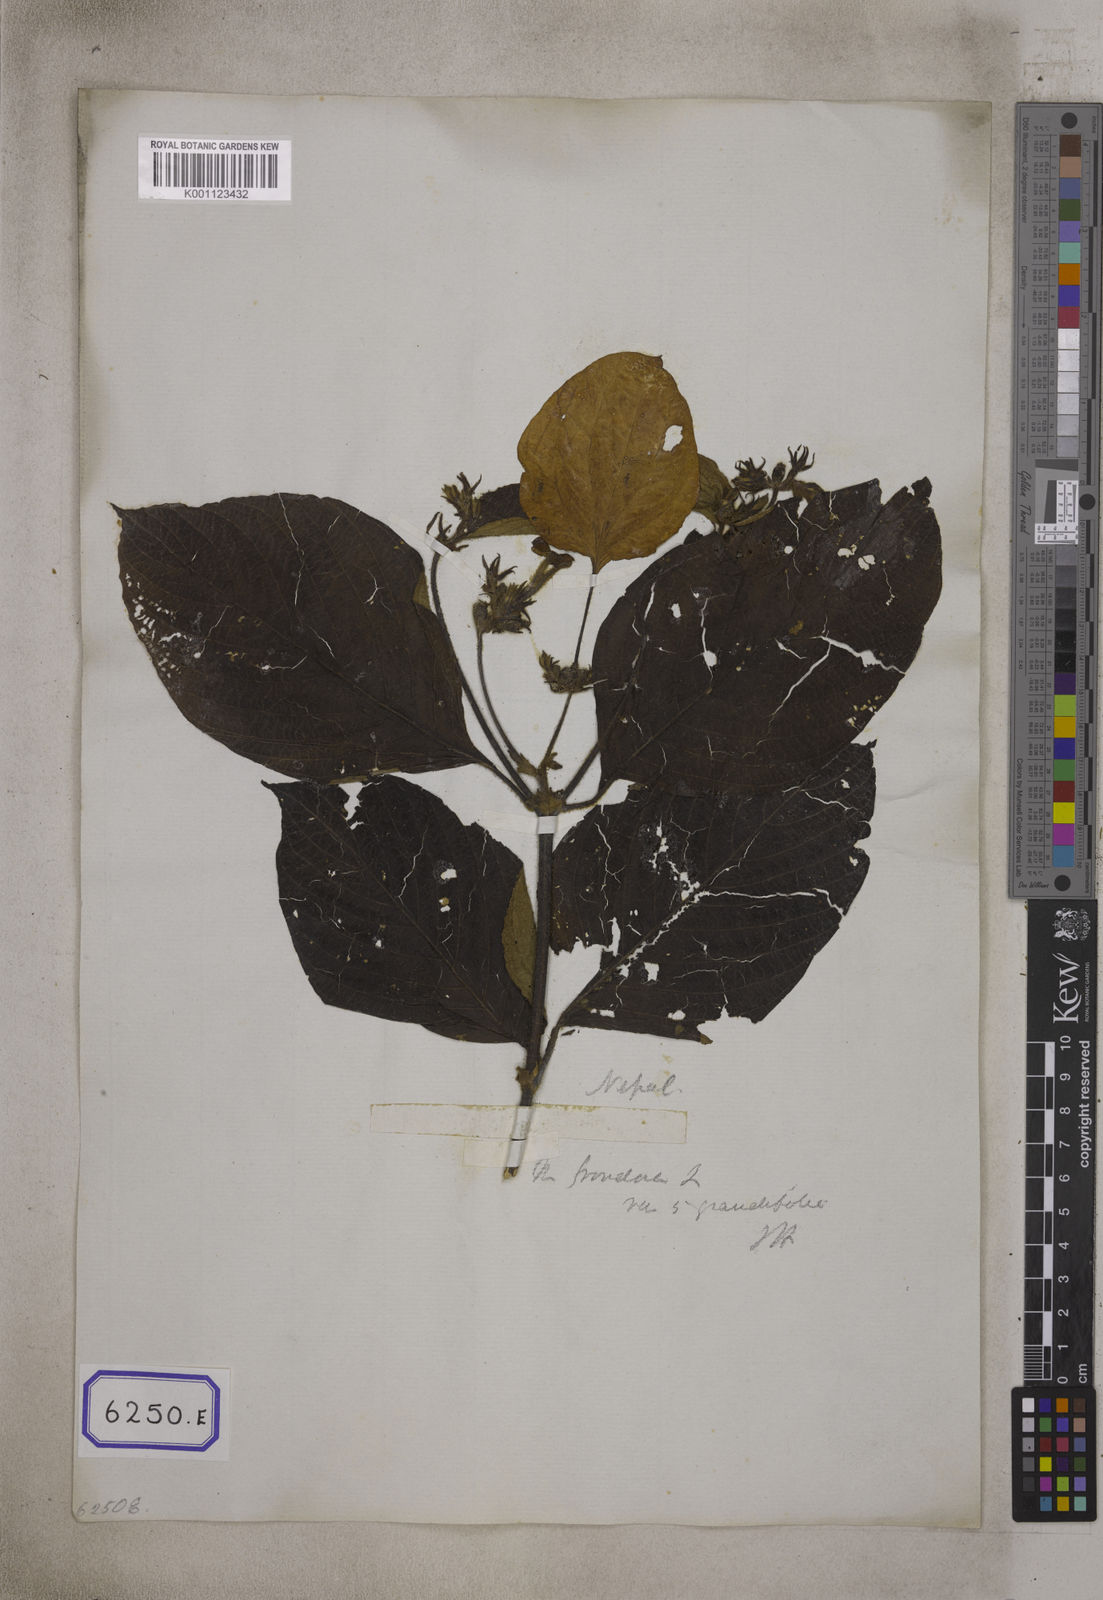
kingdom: Plantae
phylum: Tracheophyta
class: Magnoliopsida
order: Gentianales
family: Rubiaceae
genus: Mussaenda
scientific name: Mussaenda
